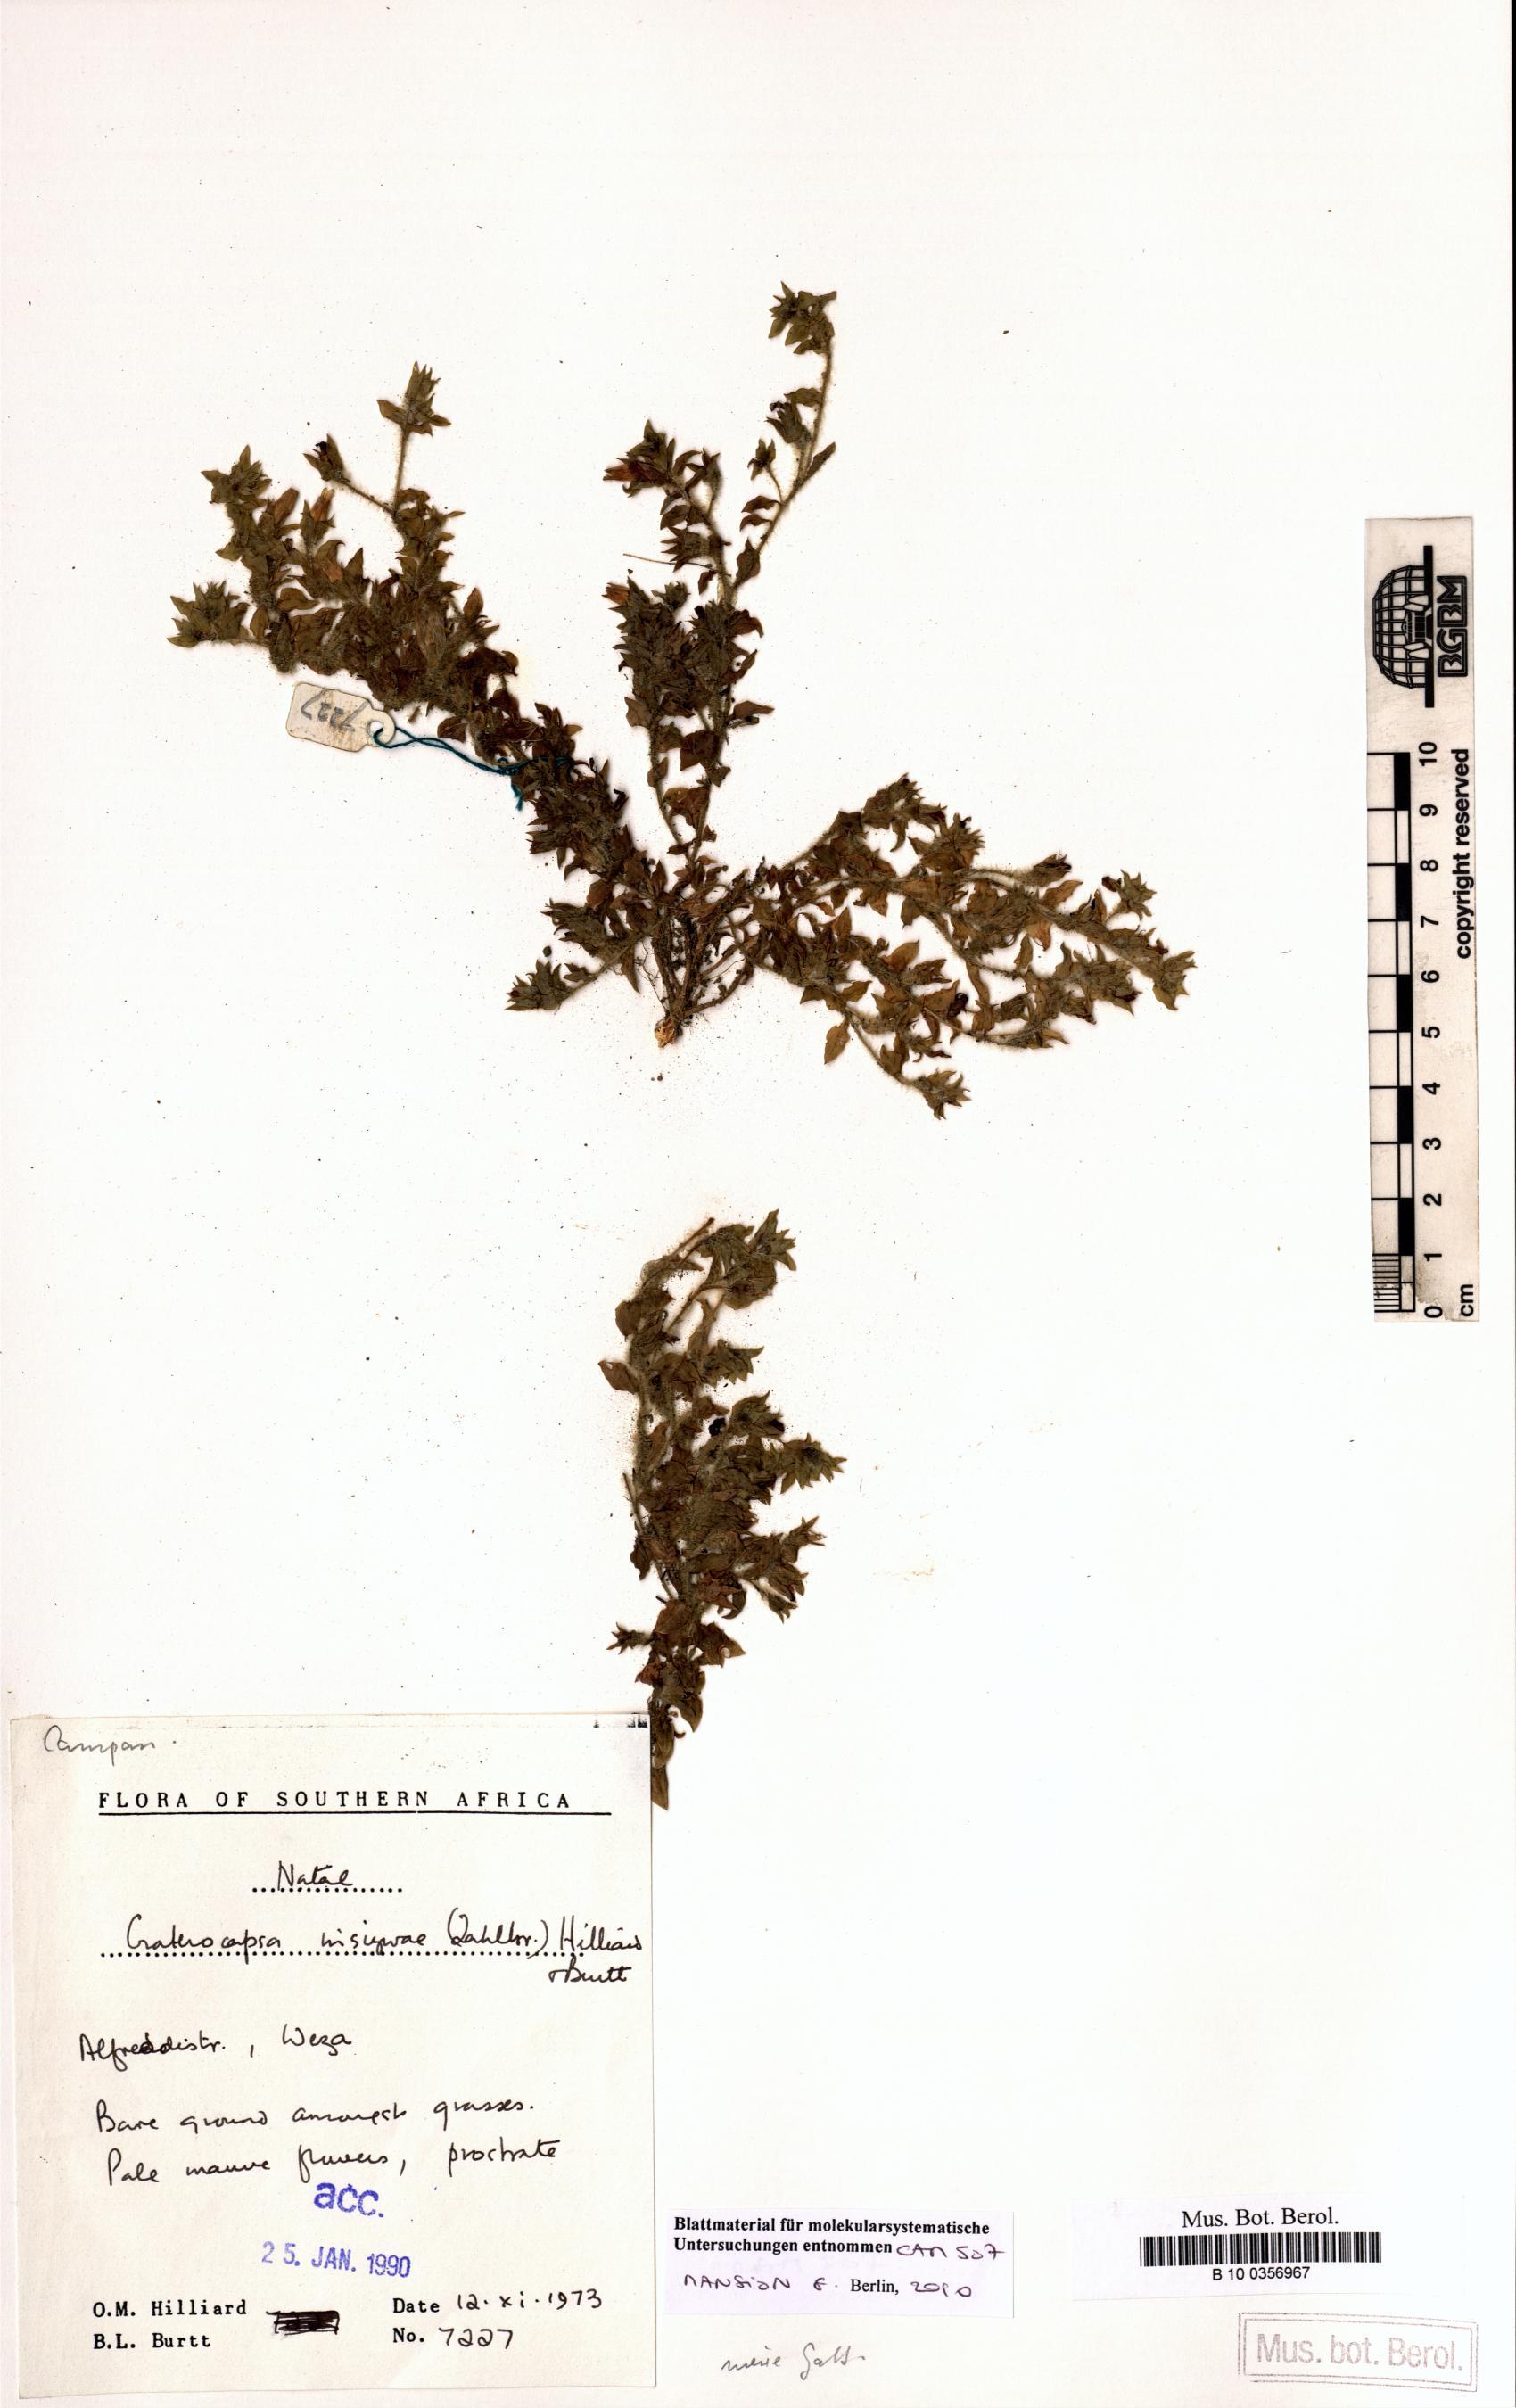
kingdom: Plantae
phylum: Tracheophyta
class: Magnoliopsida
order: Asterales
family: Campanulaceae
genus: Craterocapsa
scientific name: Craterocapsa insizwae
